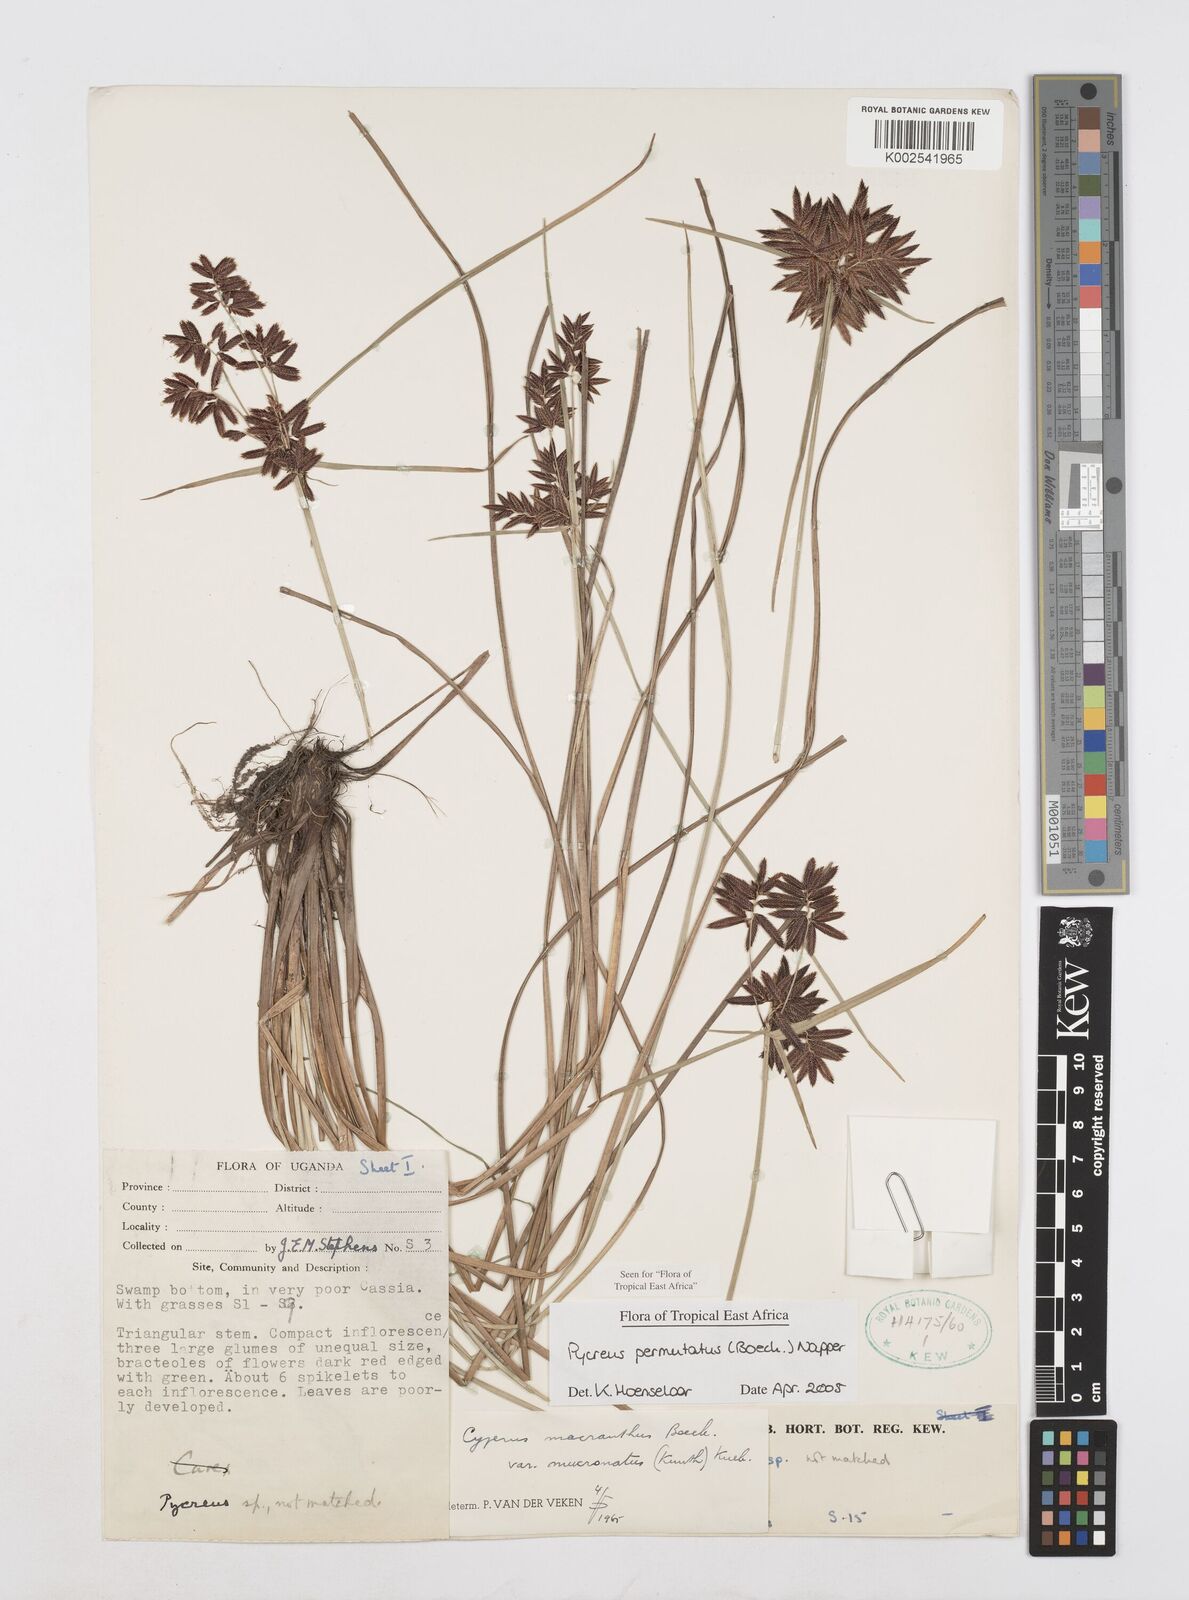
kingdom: Plantae
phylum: Tracheophyta
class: Liliopsida
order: Poales
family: Cyperaceae
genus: Cyperus
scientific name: Cyperus nigricans
